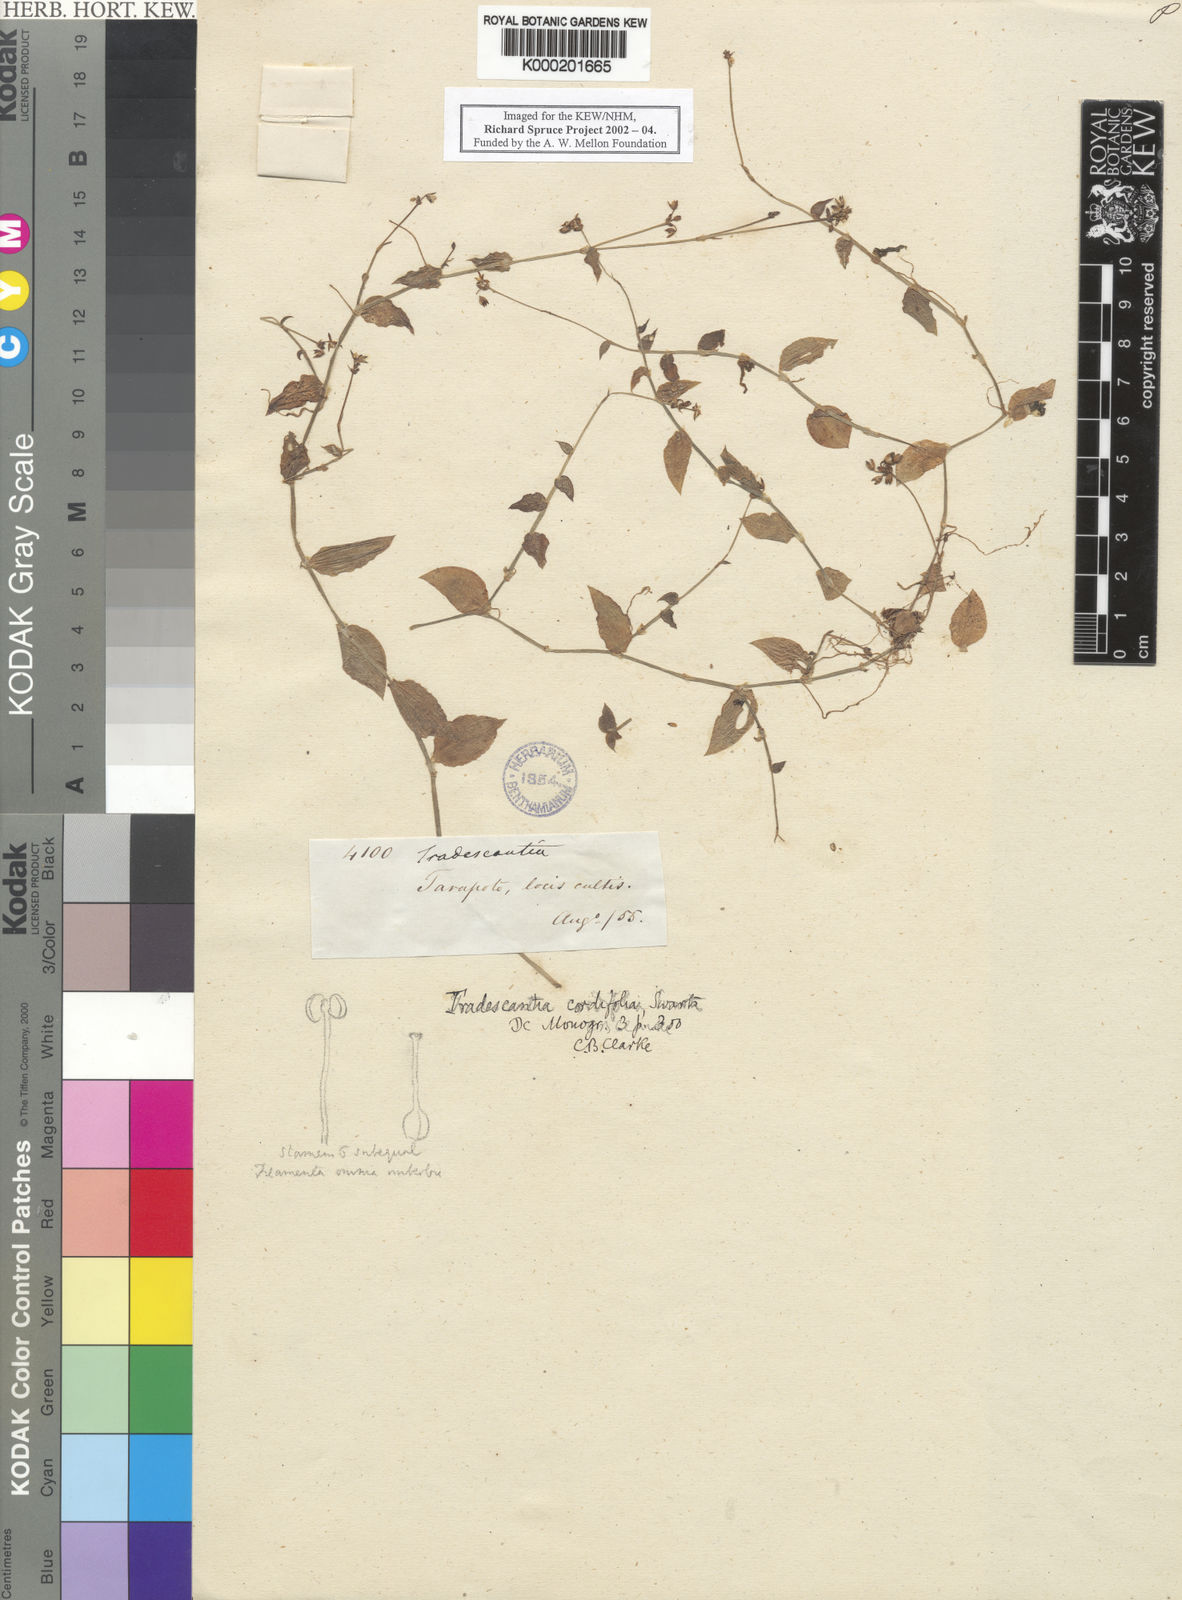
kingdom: Plantae
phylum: Tracheophyta
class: Liliopsida
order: Commelinales
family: Commelinaceae
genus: Callisia
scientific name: Callisia cordifolia
